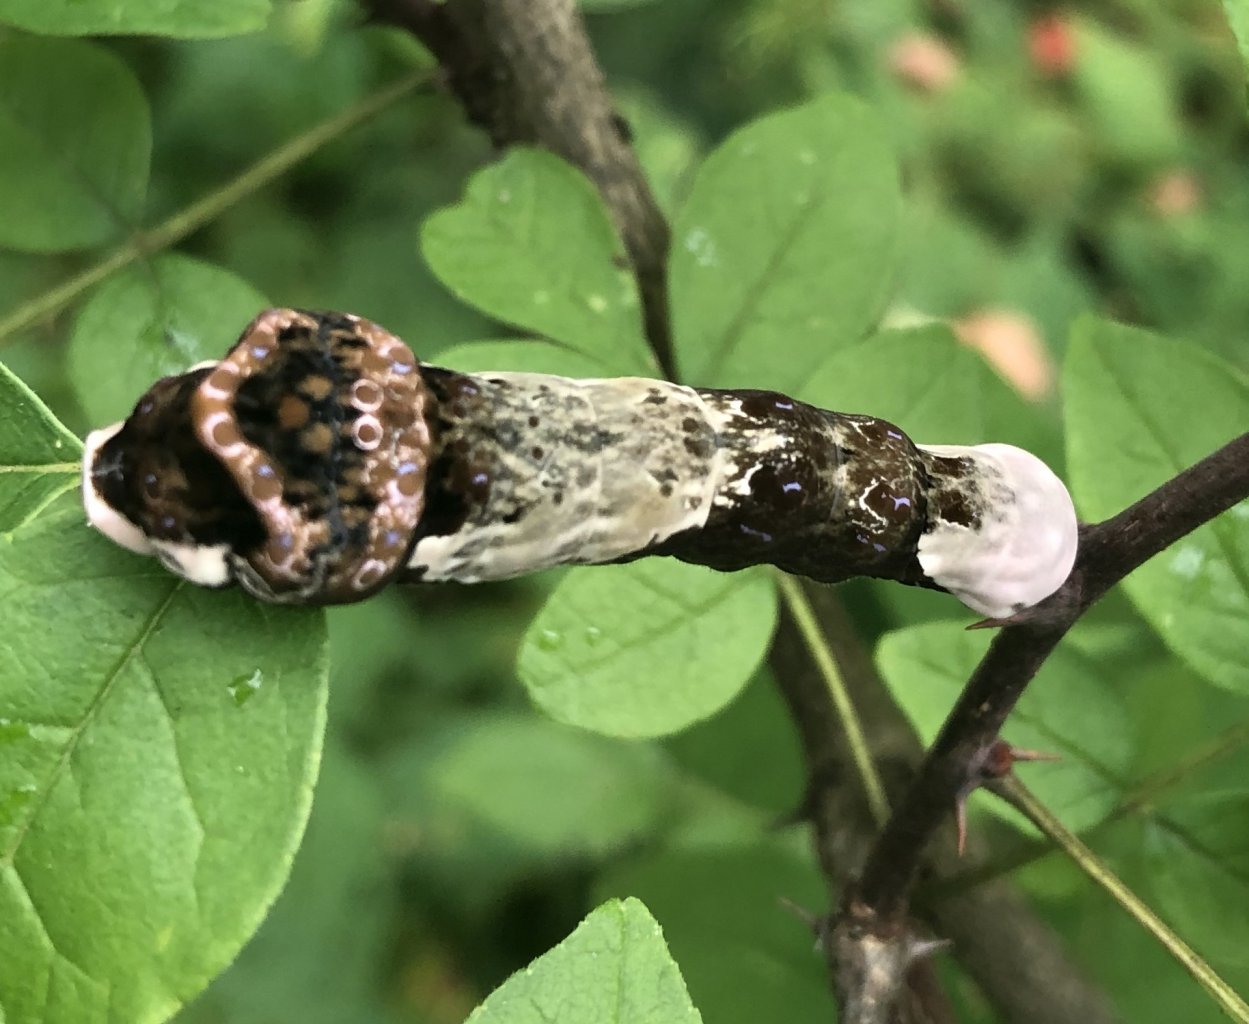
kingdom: Animalia
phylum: Arthropoda
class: Insecta
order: Lepidoptera
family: Papilionidae
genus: Papilio
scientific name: Papilio cresphontes
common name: Eastern Giant Swallowtail
